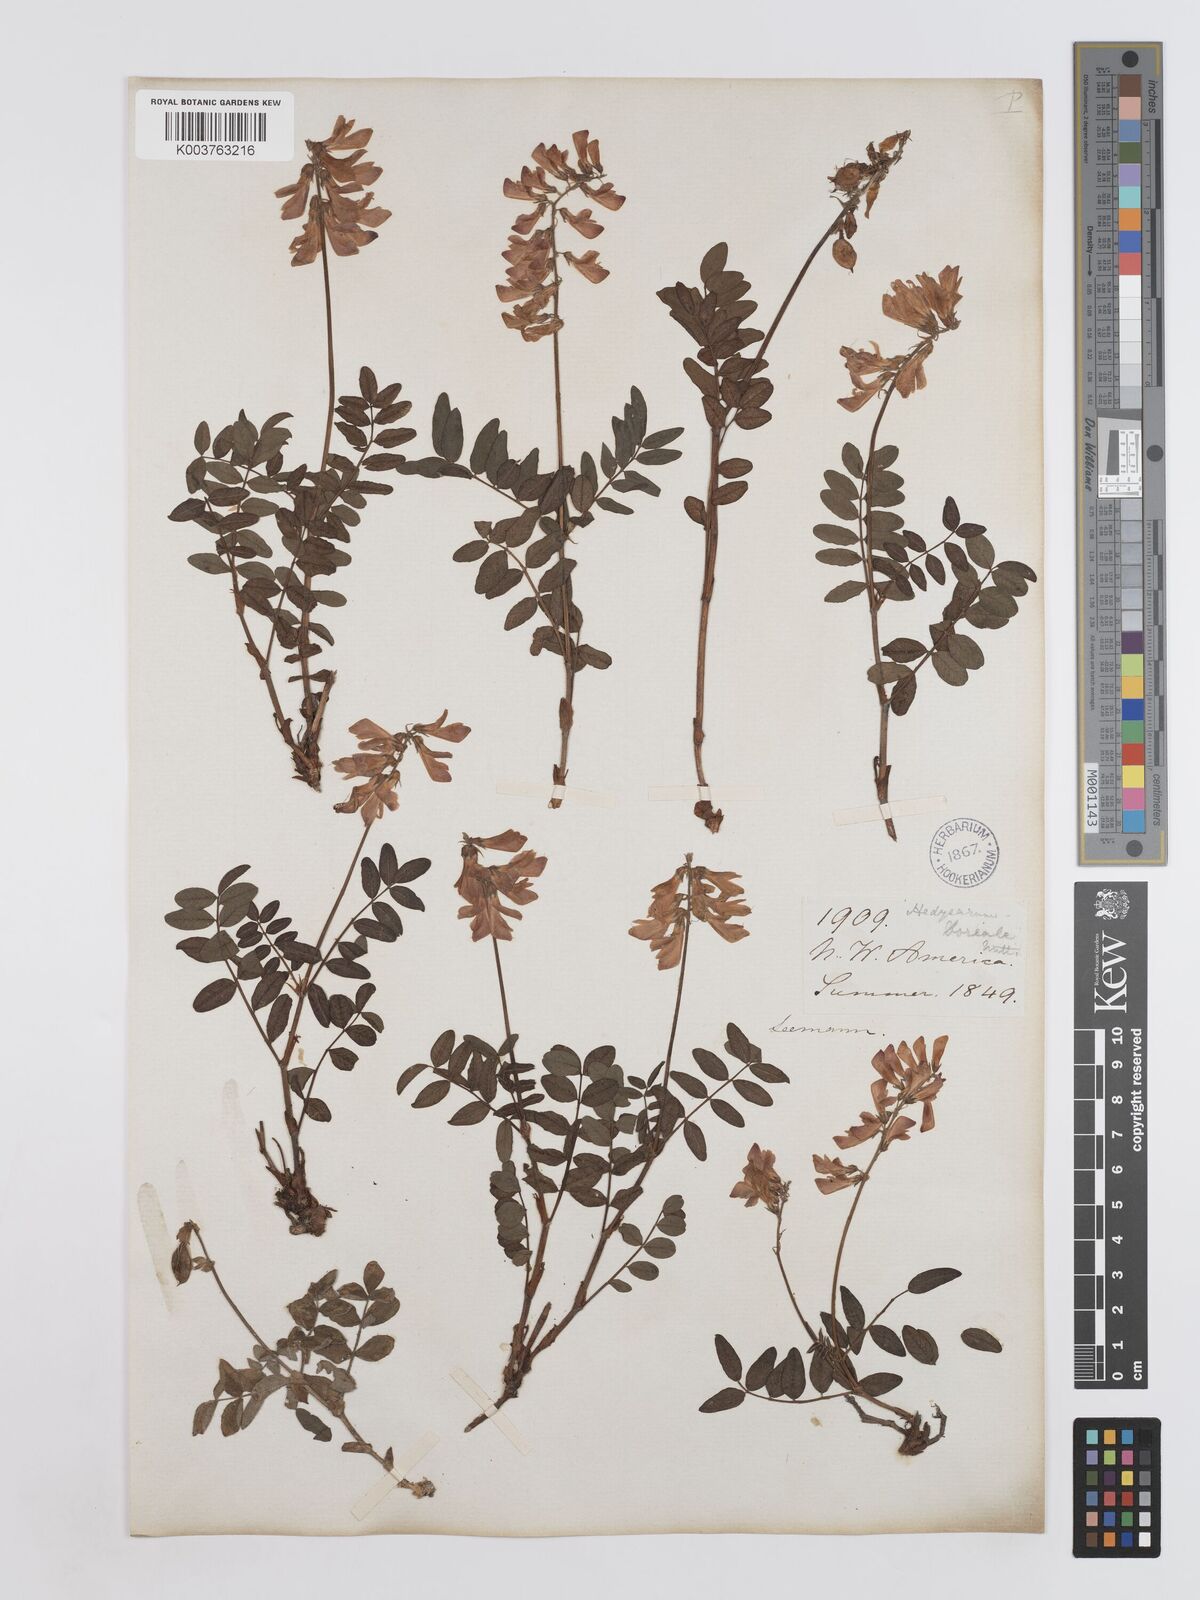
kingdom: Plantae
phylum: Tracheophyta
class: Magnoliopsida
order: Fabales
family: Fabaceae
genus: Hedysarum
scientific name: Hedysarum boreale
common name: Northern sweet-vetch
